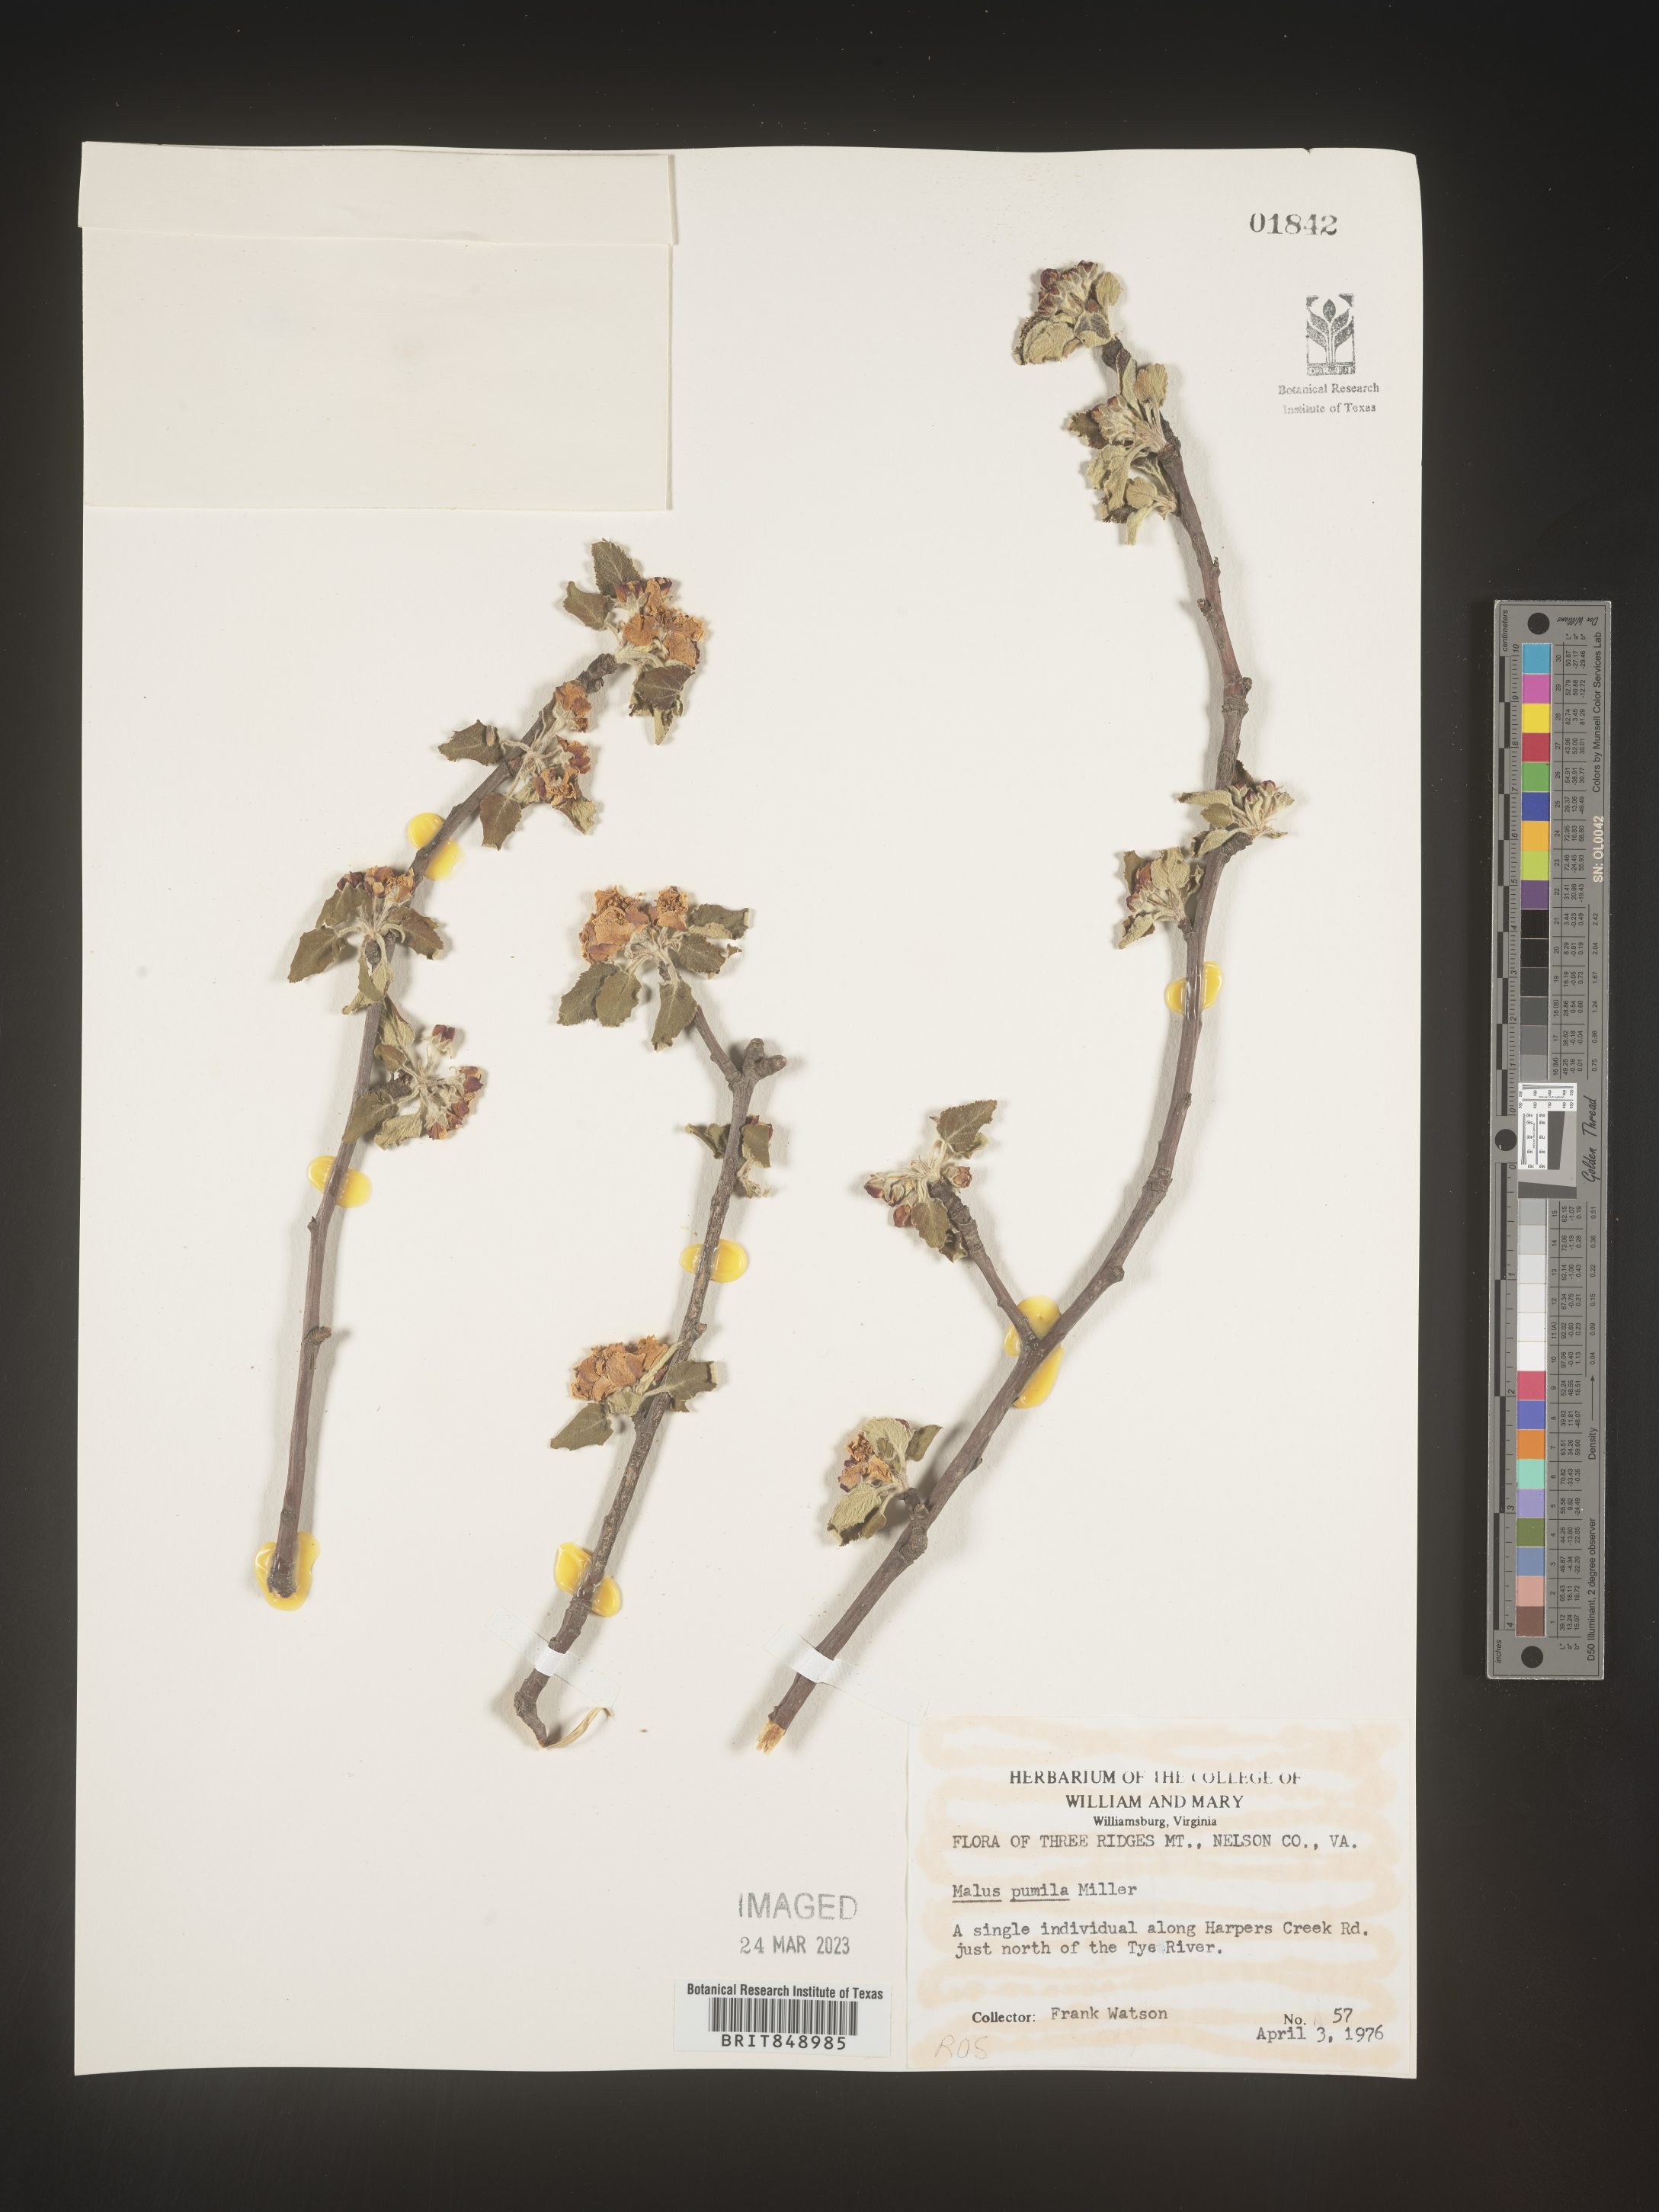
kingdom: Plantae
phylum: Tracheophyta
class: Magnoliopsida
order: Rosales
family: Rosaceae
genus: Malus
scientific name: Malus
